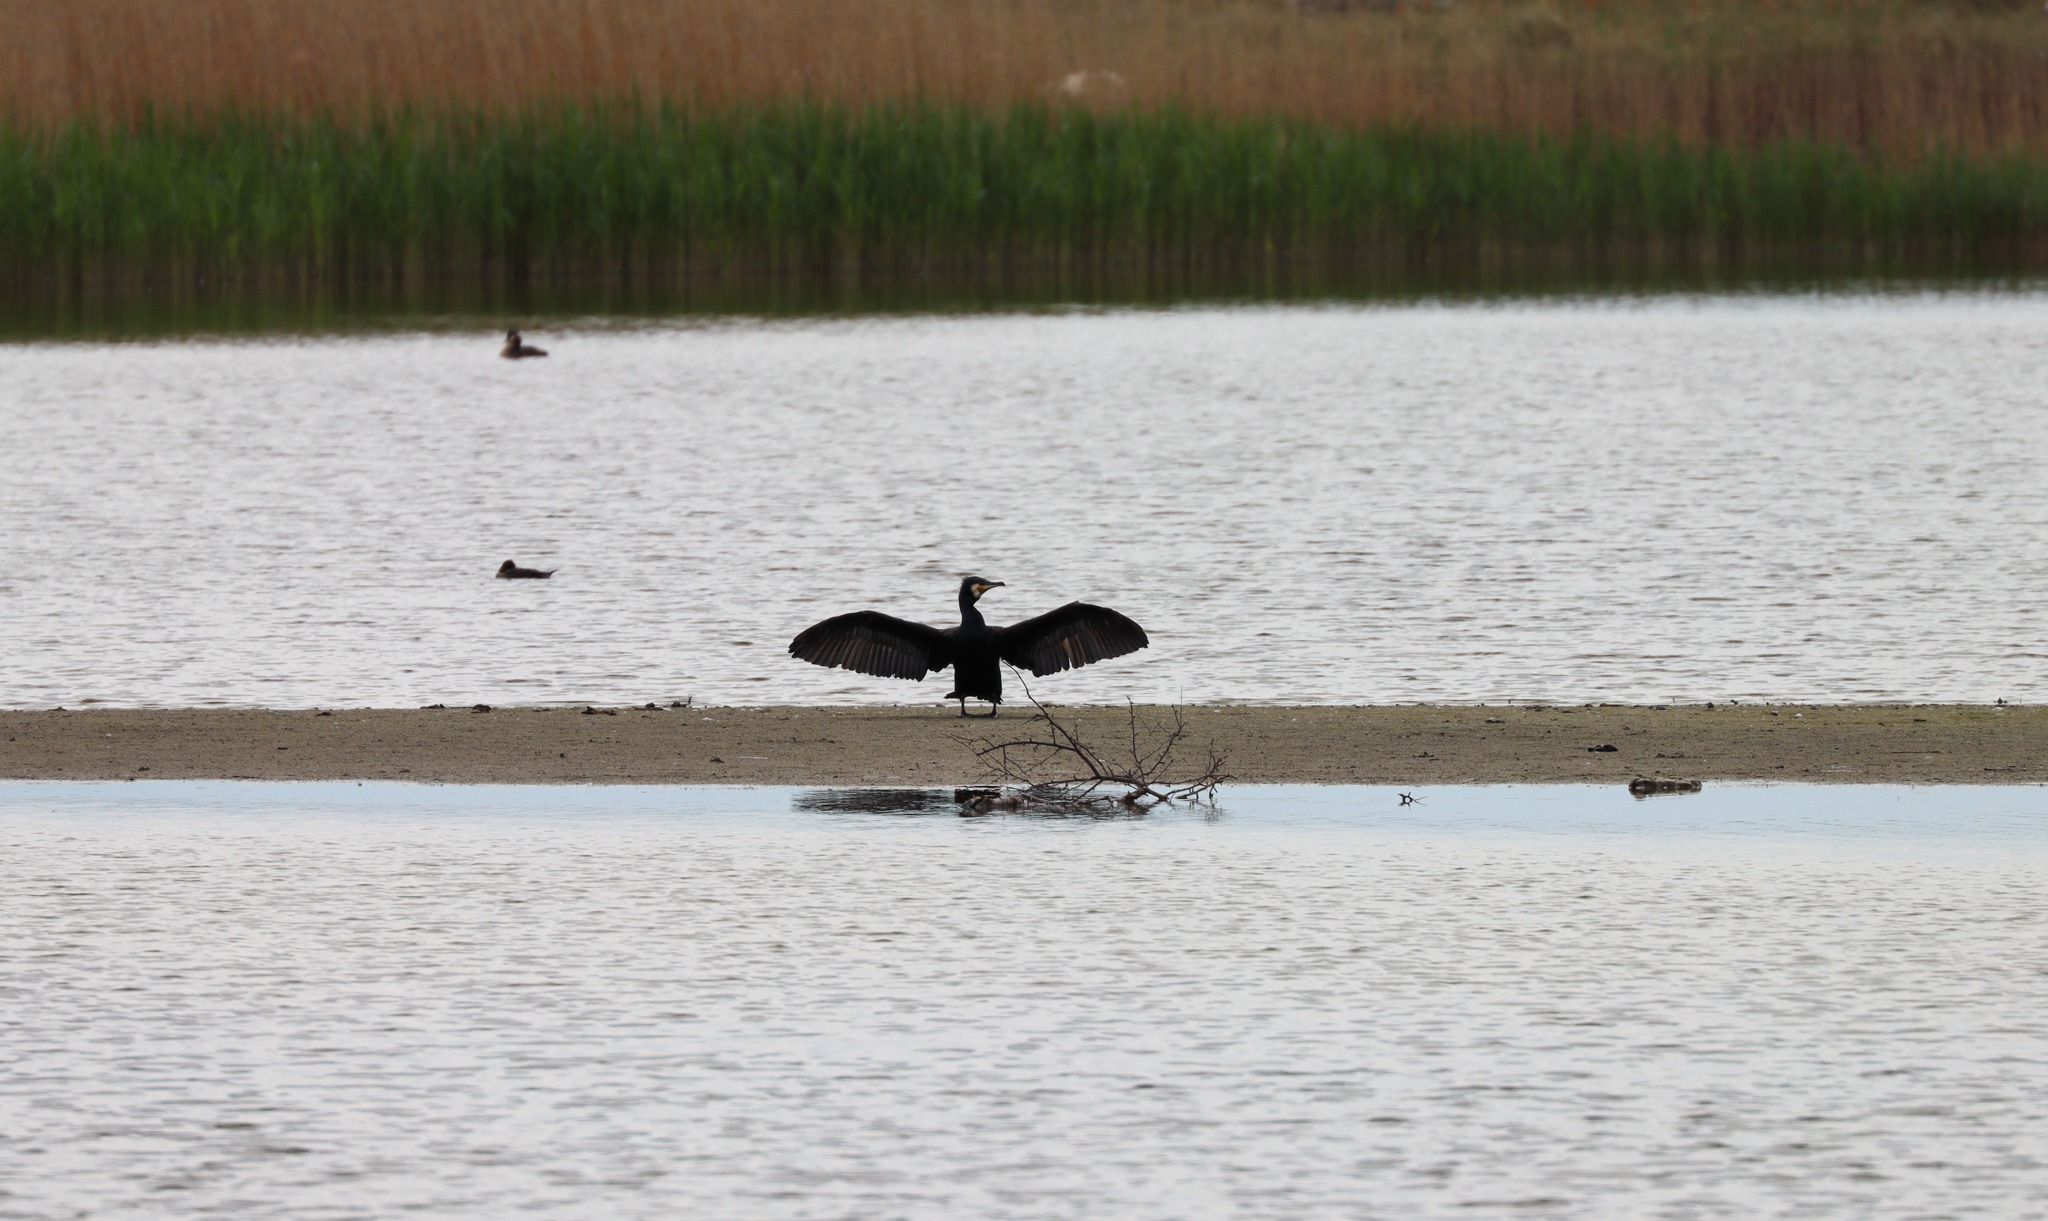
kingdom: Animalia
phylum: Chordata
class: Aves
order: Suliformes
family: Phalacrocoracidae
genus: Phalacrocorax
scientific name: Phalacrocorax carbo
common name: Skarv
